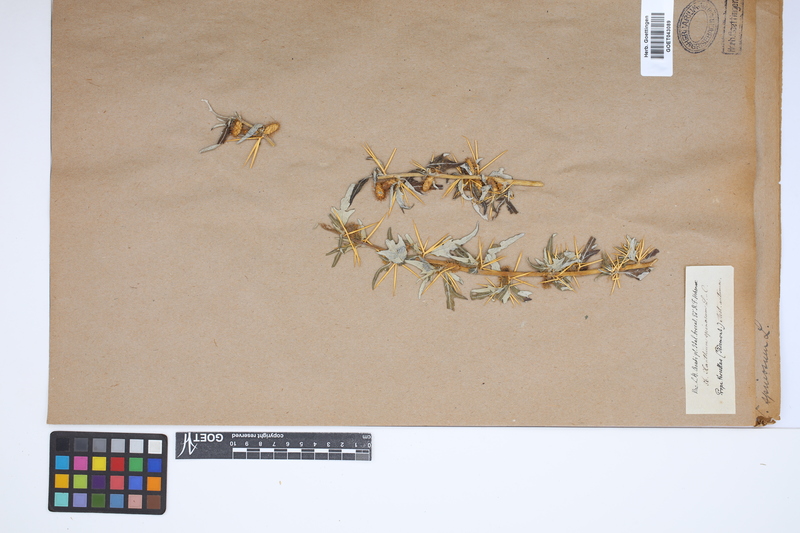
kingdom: Plantae
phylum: Tracheophyta
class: Magnoliopsida
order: Asterales
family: Asteraceae
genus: Xanthium
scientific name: Xanthium spinosum
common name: Spiny cocklebur
